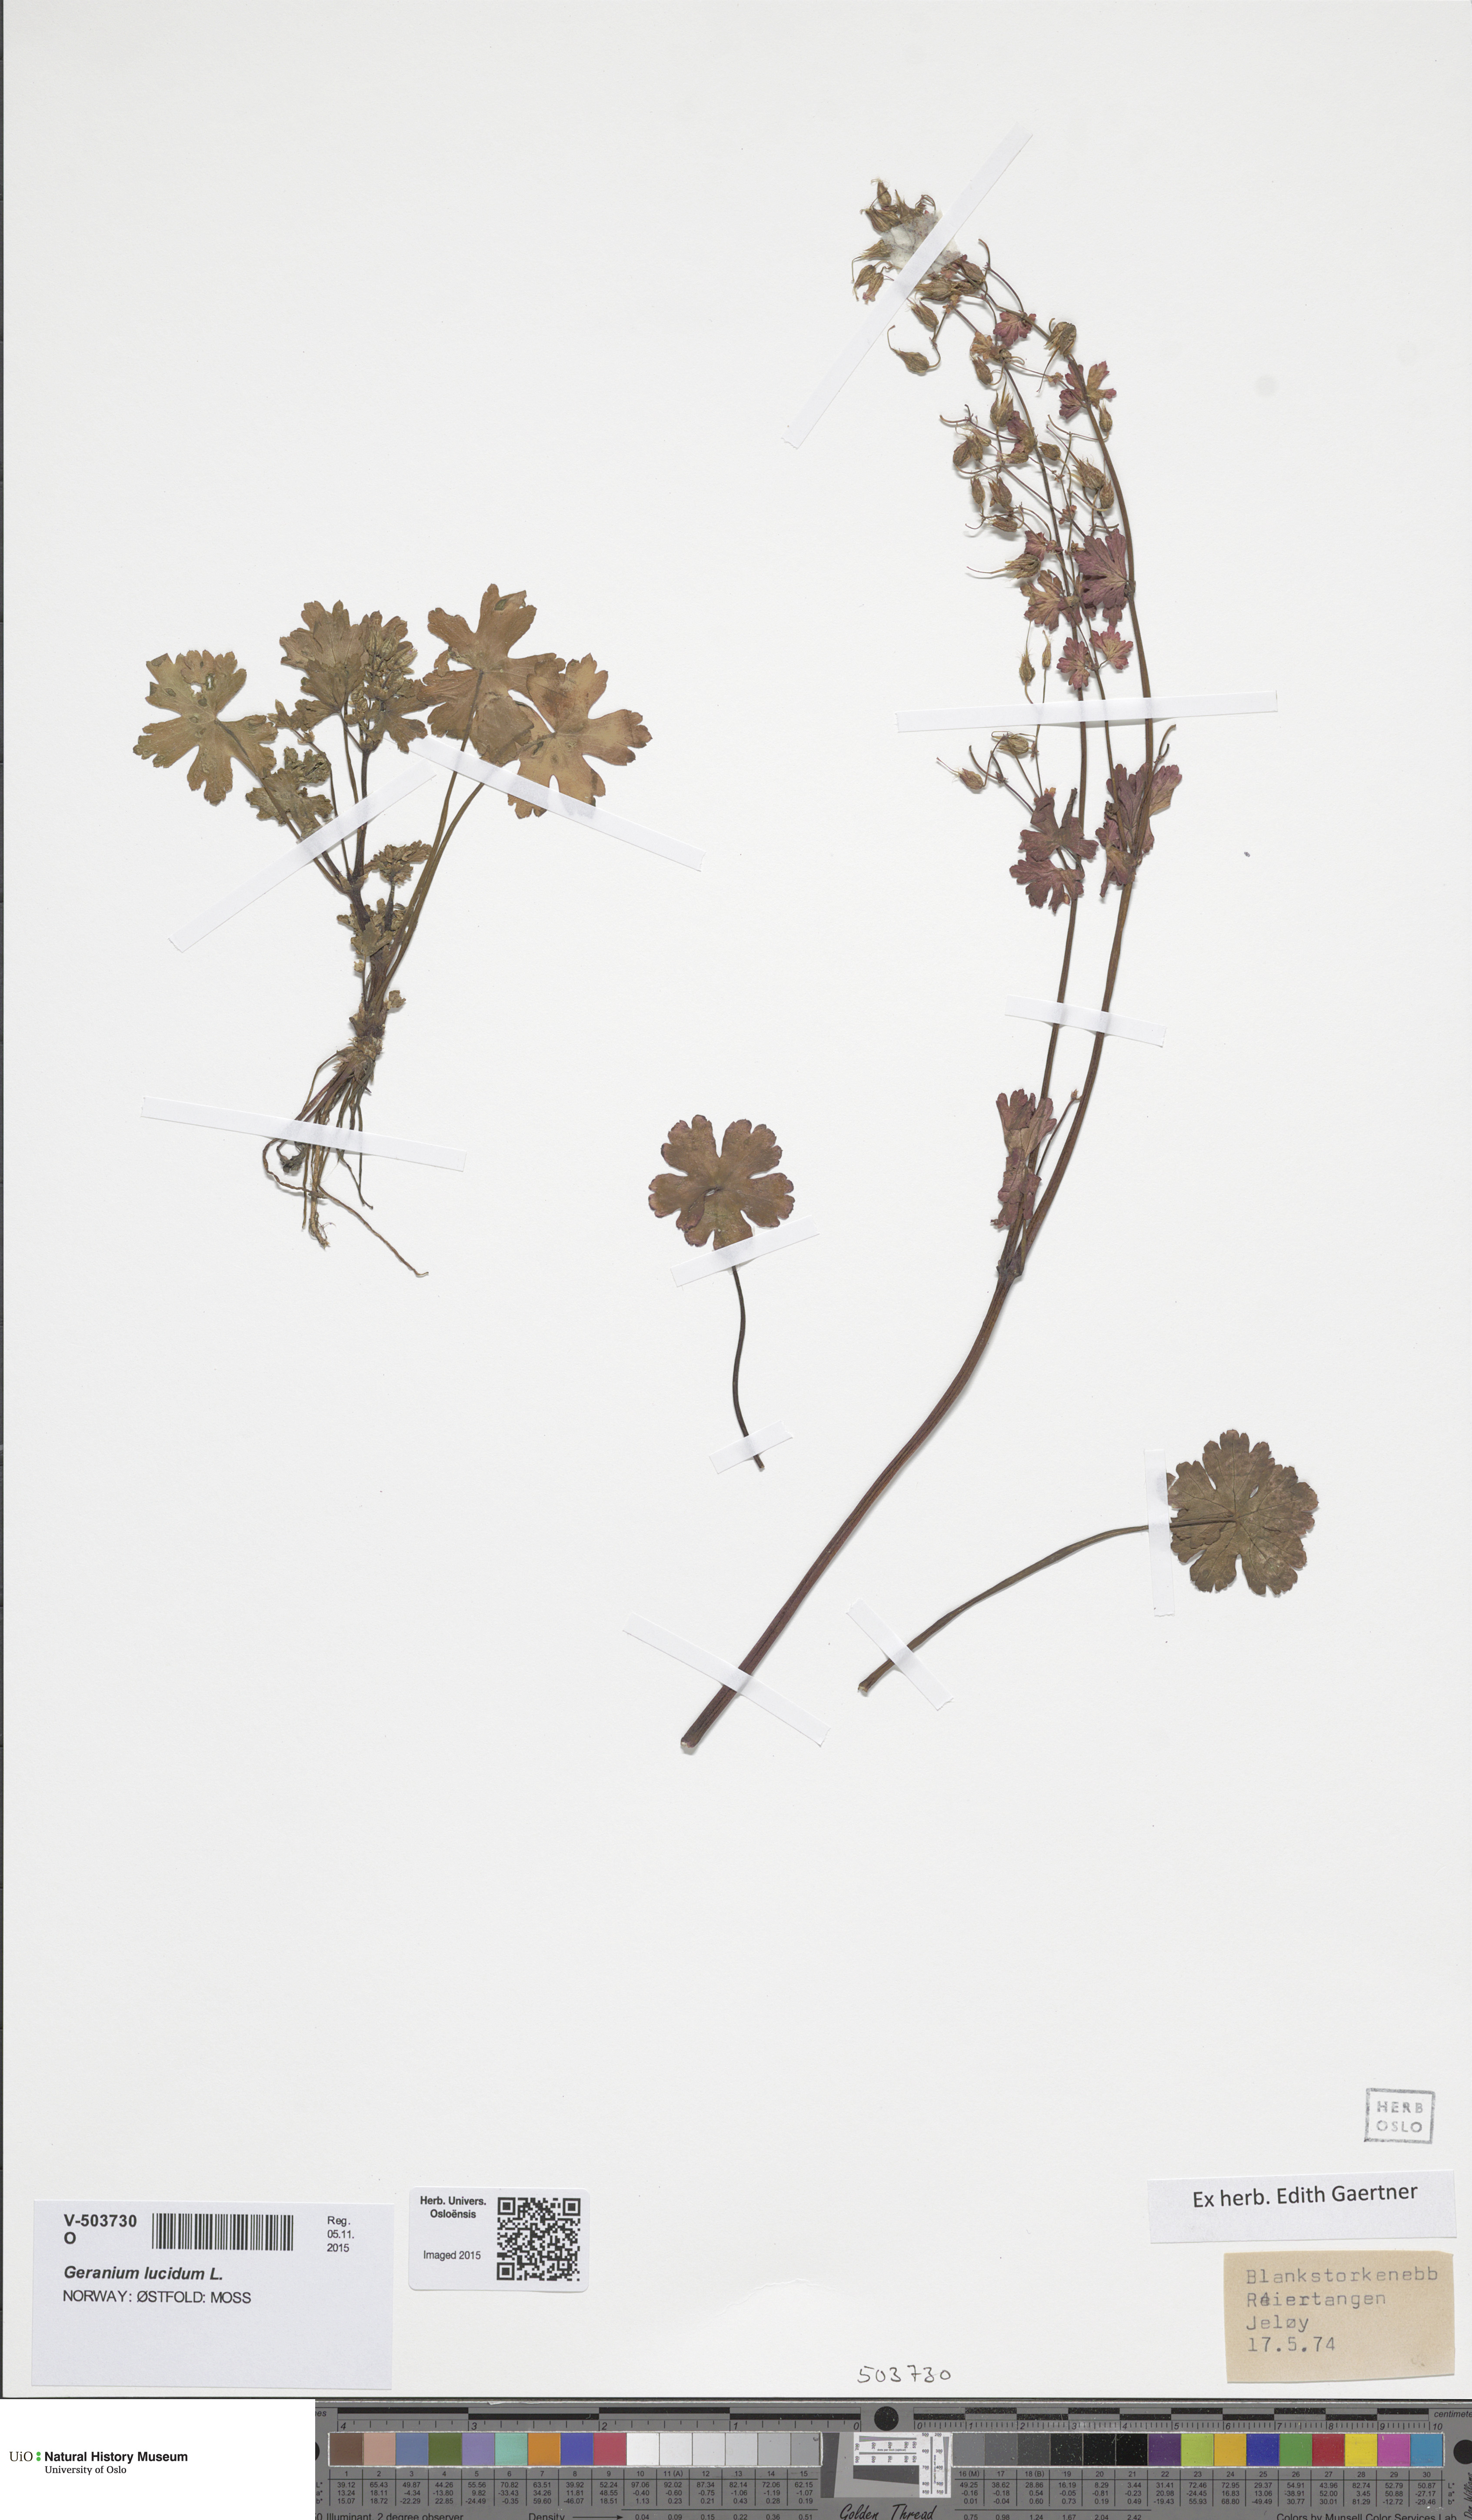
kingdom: Plantae
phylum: Tracheophyta
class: Magnoliopsida
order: Geraniales
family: Geraniaceae
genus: Geranium
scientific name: Geranium lucidum
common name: Shining crane's-bill
